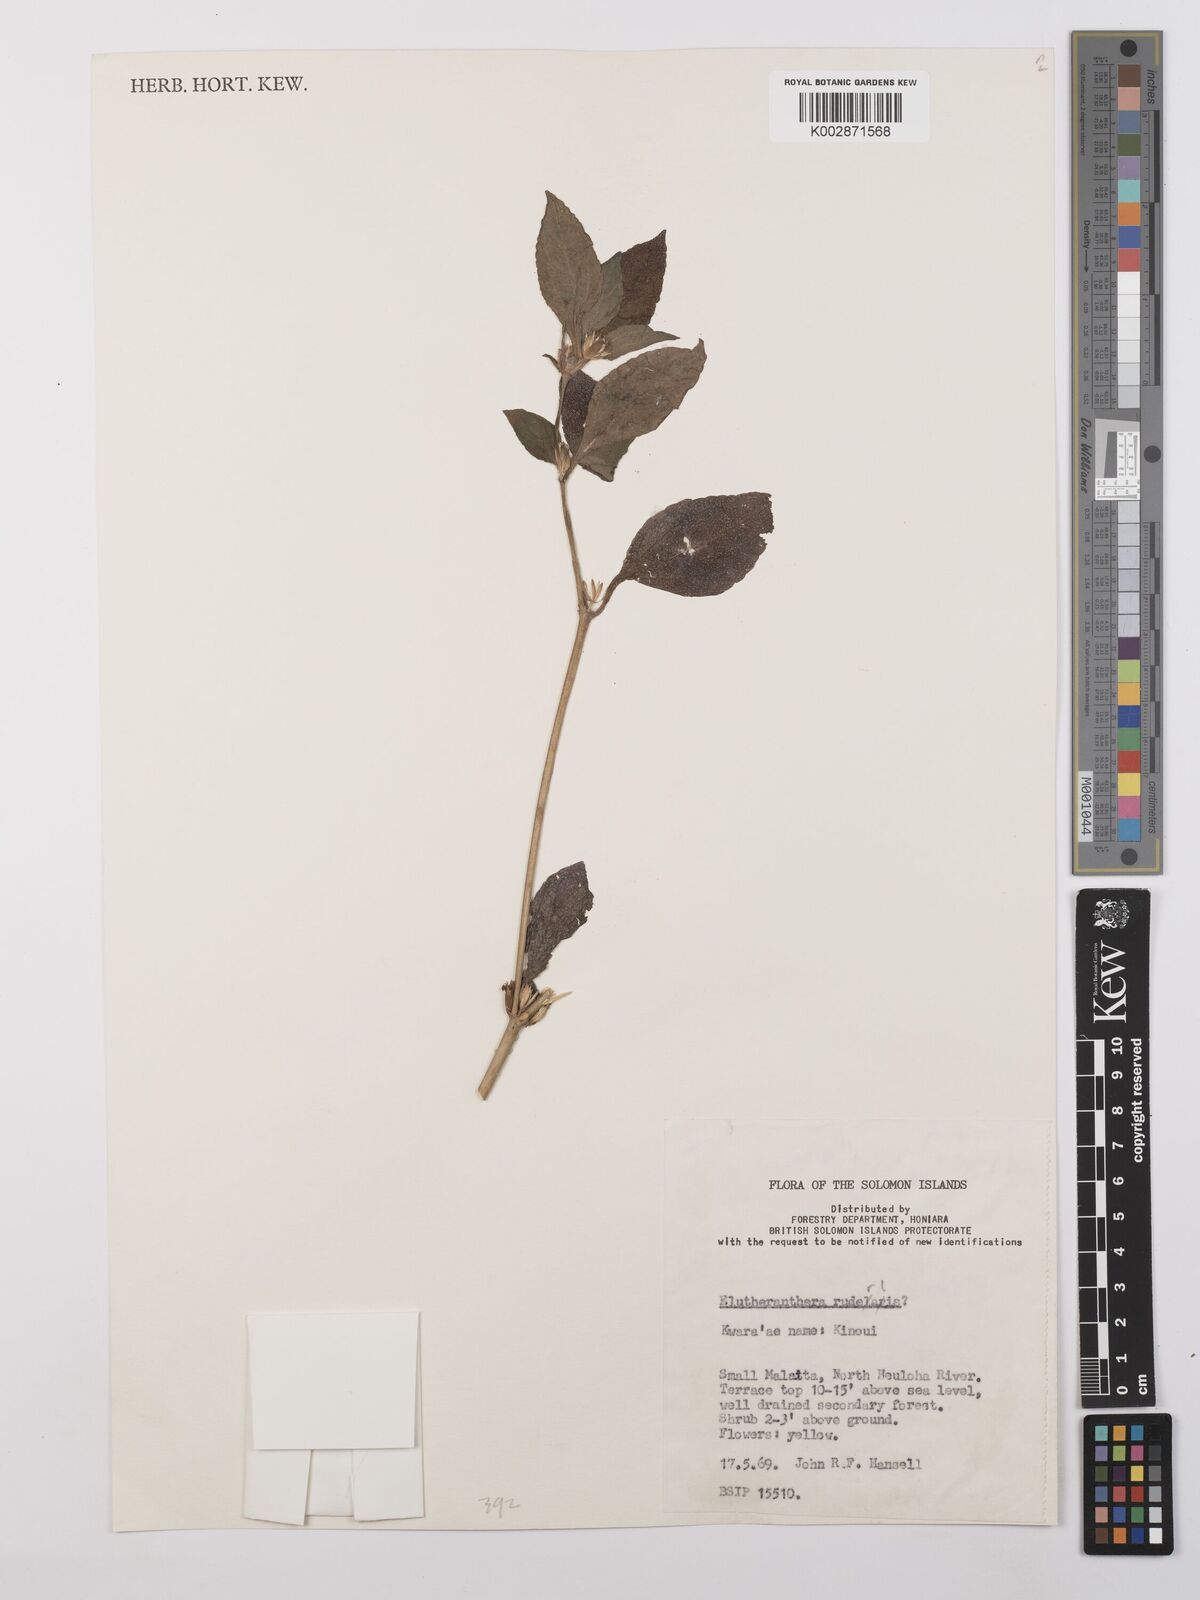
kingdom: Plantae
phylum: Tracheophyta
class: Magnoliopsida
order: Asterales
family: Asteraceae
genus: Eleutheranthera
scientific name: Eleutheranthera ruderalis
